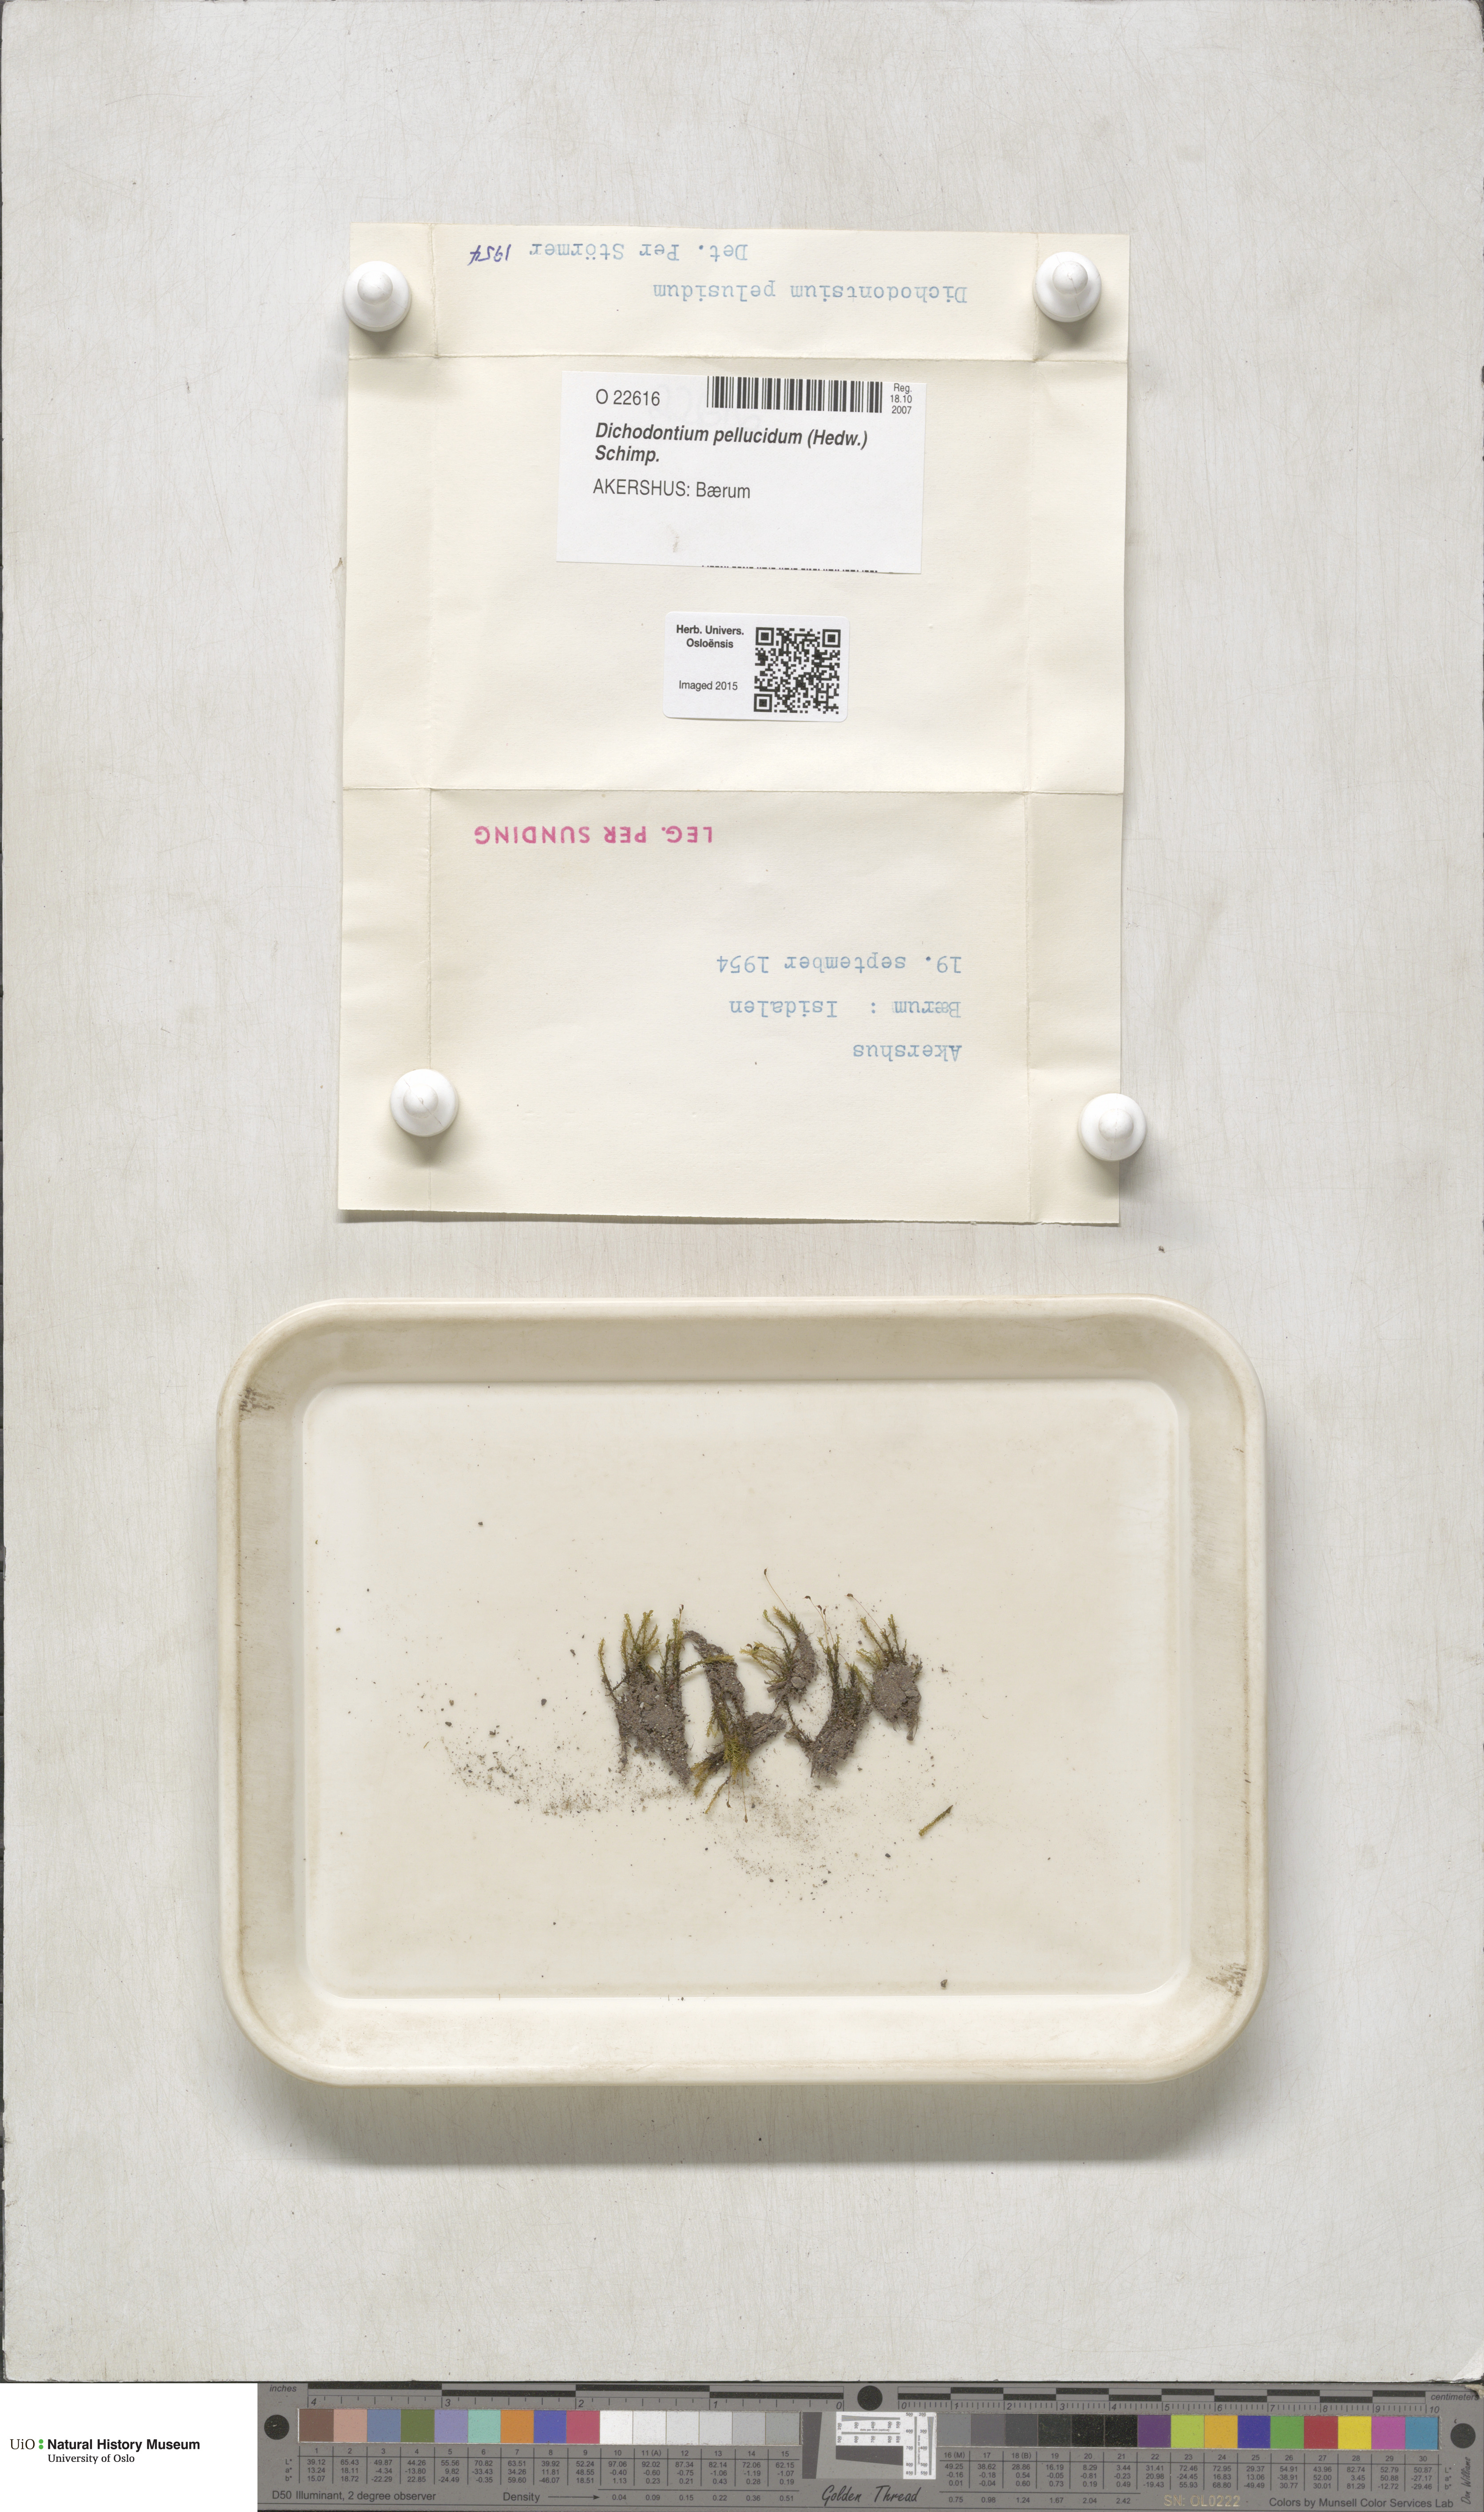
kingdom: Plantae
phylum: Bryophyta
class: Bryopsida
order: Dicranales
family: Aongstroemiaceae
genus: Dichodontium
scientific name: Dichodontium pellucidum
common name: Transparent fork moss
